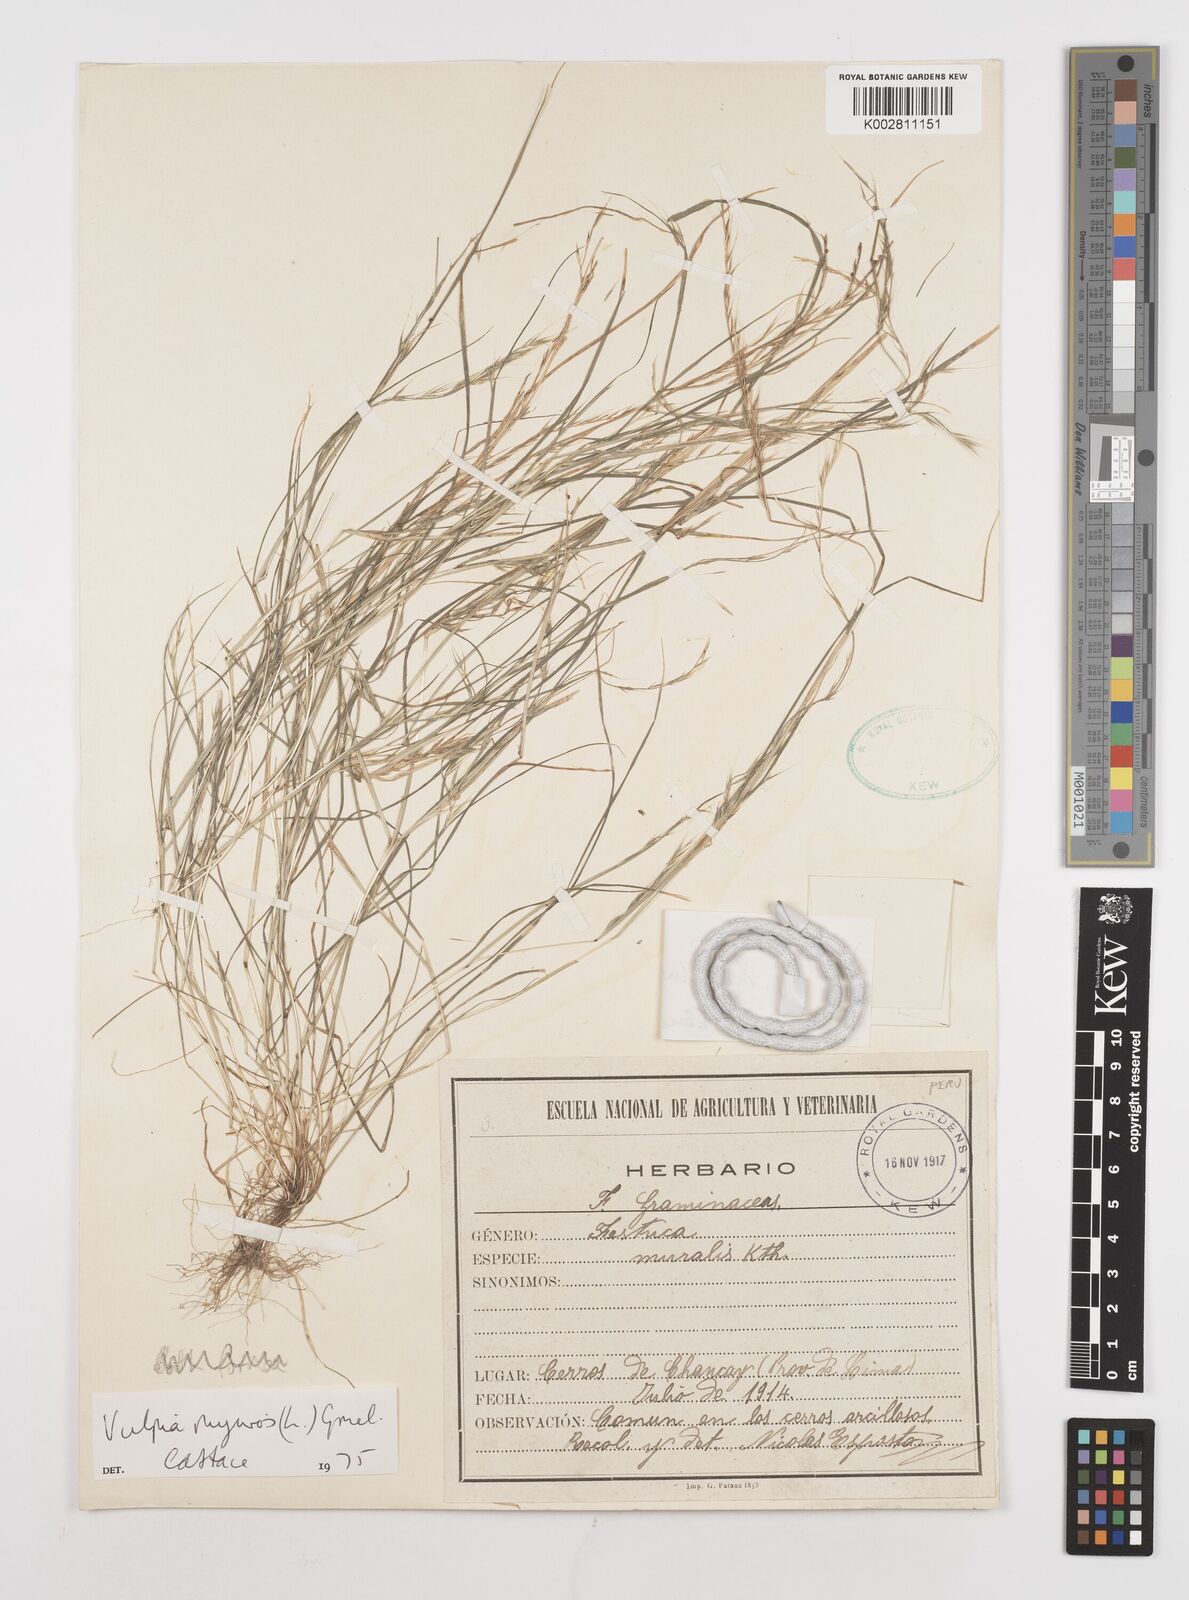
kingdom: Plantae
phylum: Tracheophyta
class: Liliopsida
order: Poales
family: Poaceae
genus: Festuca
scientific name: Festuca myuros
